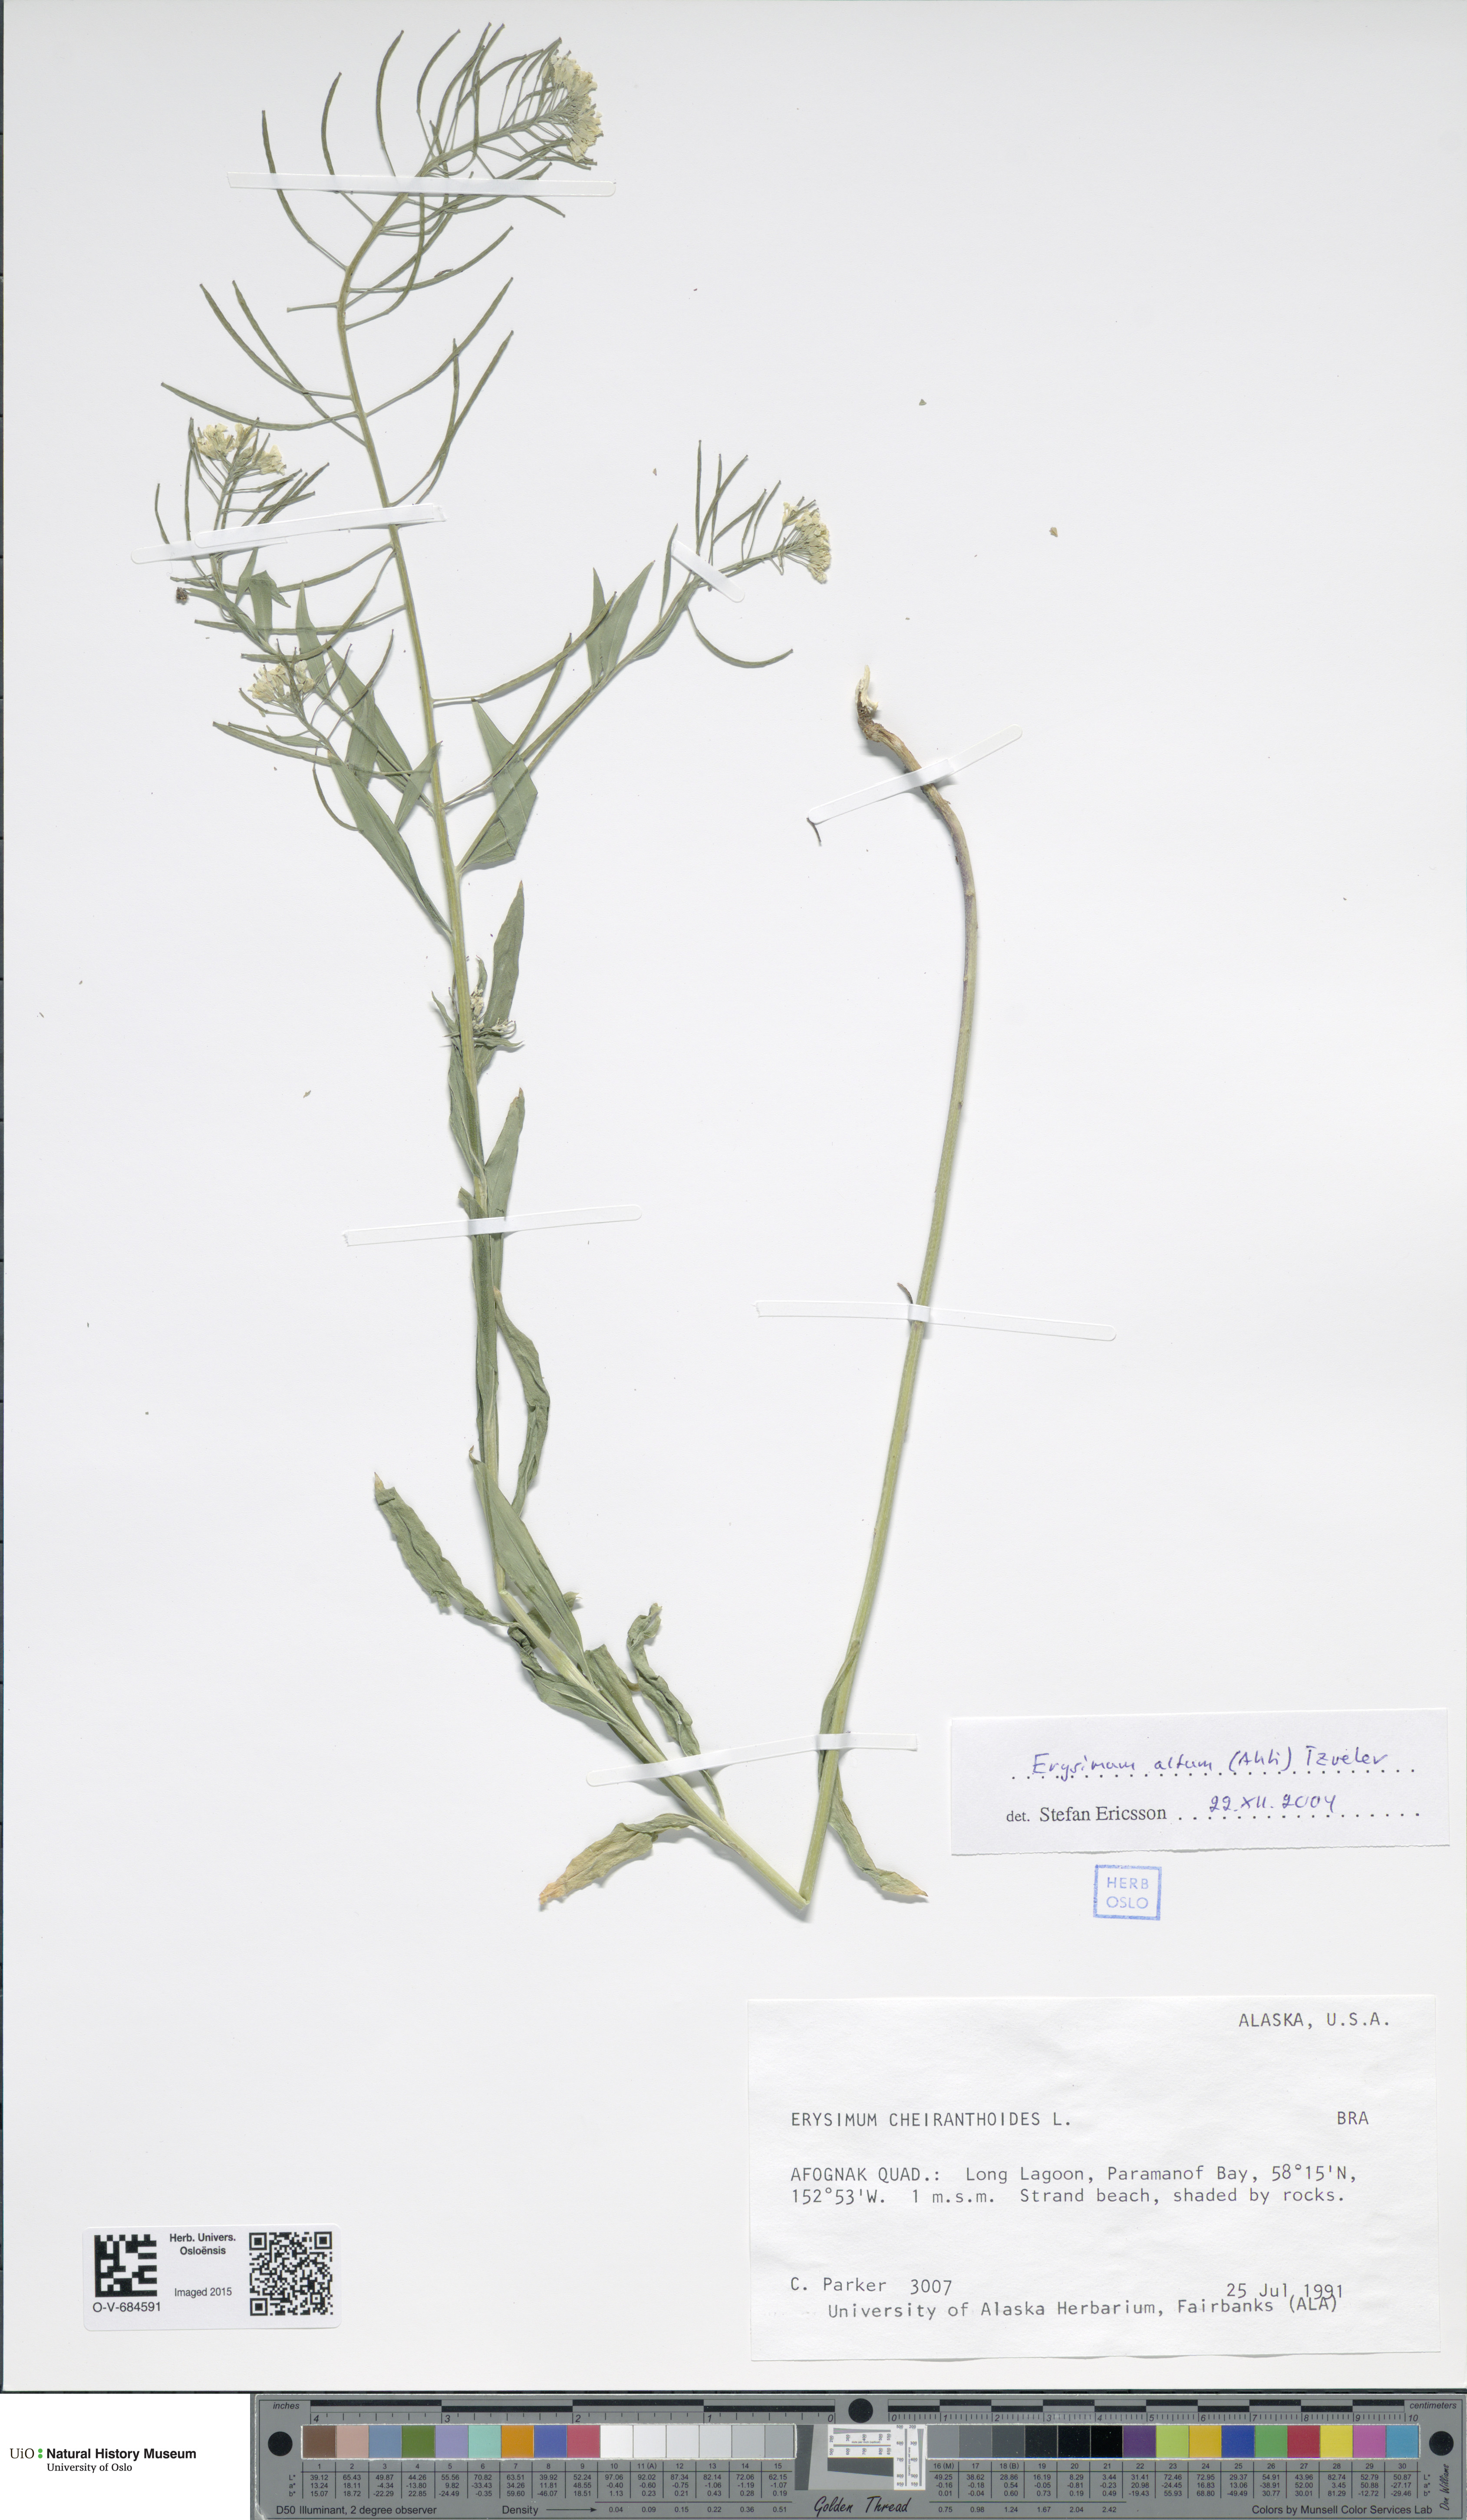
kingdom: Plantae
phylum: Tracheophyta
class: Magnoliopsida
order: Brassicales
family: Brassicaceae
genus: Erysimum
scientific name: Erysimum cheiranthoides
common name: Treacle mustard
